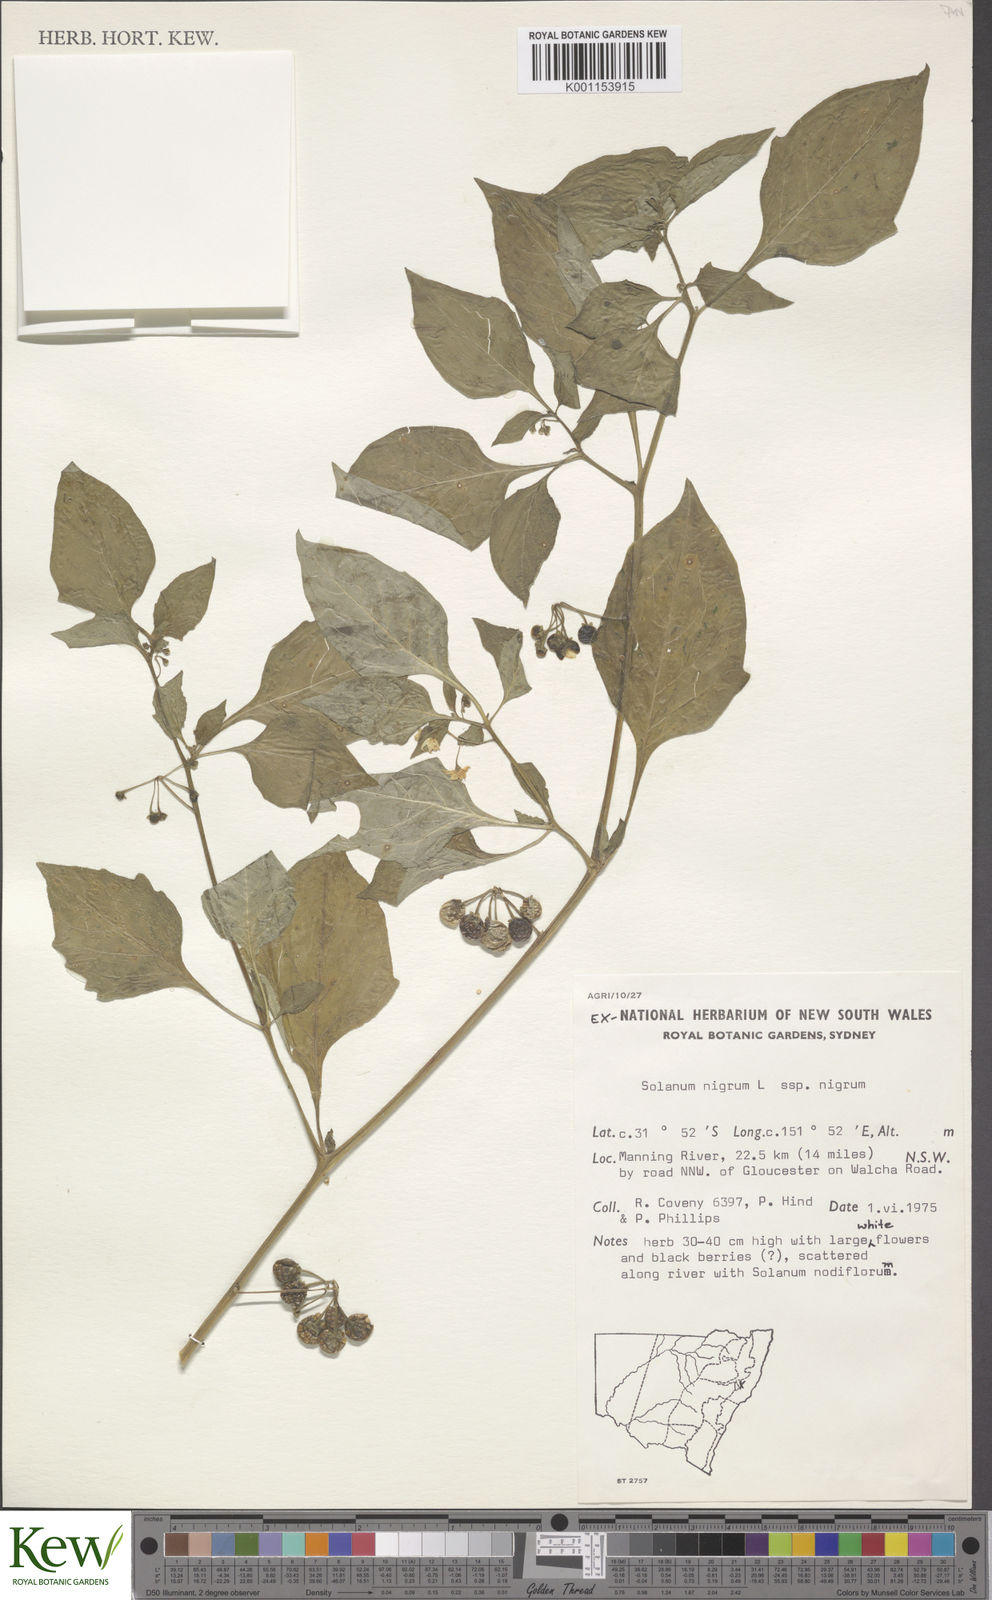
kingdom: Plantae
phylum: Tracheophyta
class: Magnoliopsida
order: Solanales
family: Solanaceae
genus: Solanum
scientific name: Solanum nigrum
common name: Black nightshade
